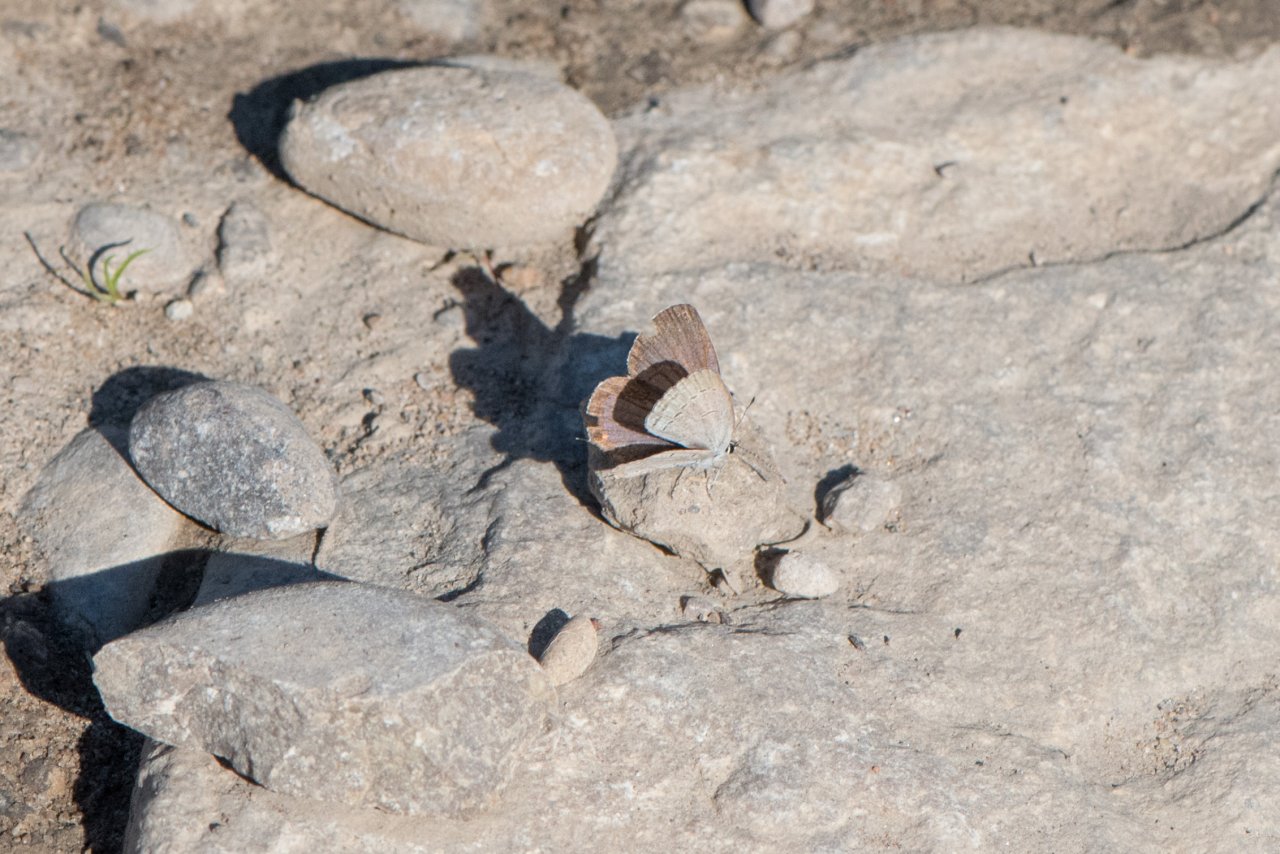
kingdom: Animalia
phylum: Arthropoda
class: Insecta
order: Lepidoptera
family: Lycaenidae
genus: Elkalyce
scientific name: Elkalyce comyntas
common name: Eastern Tailed-Blue
